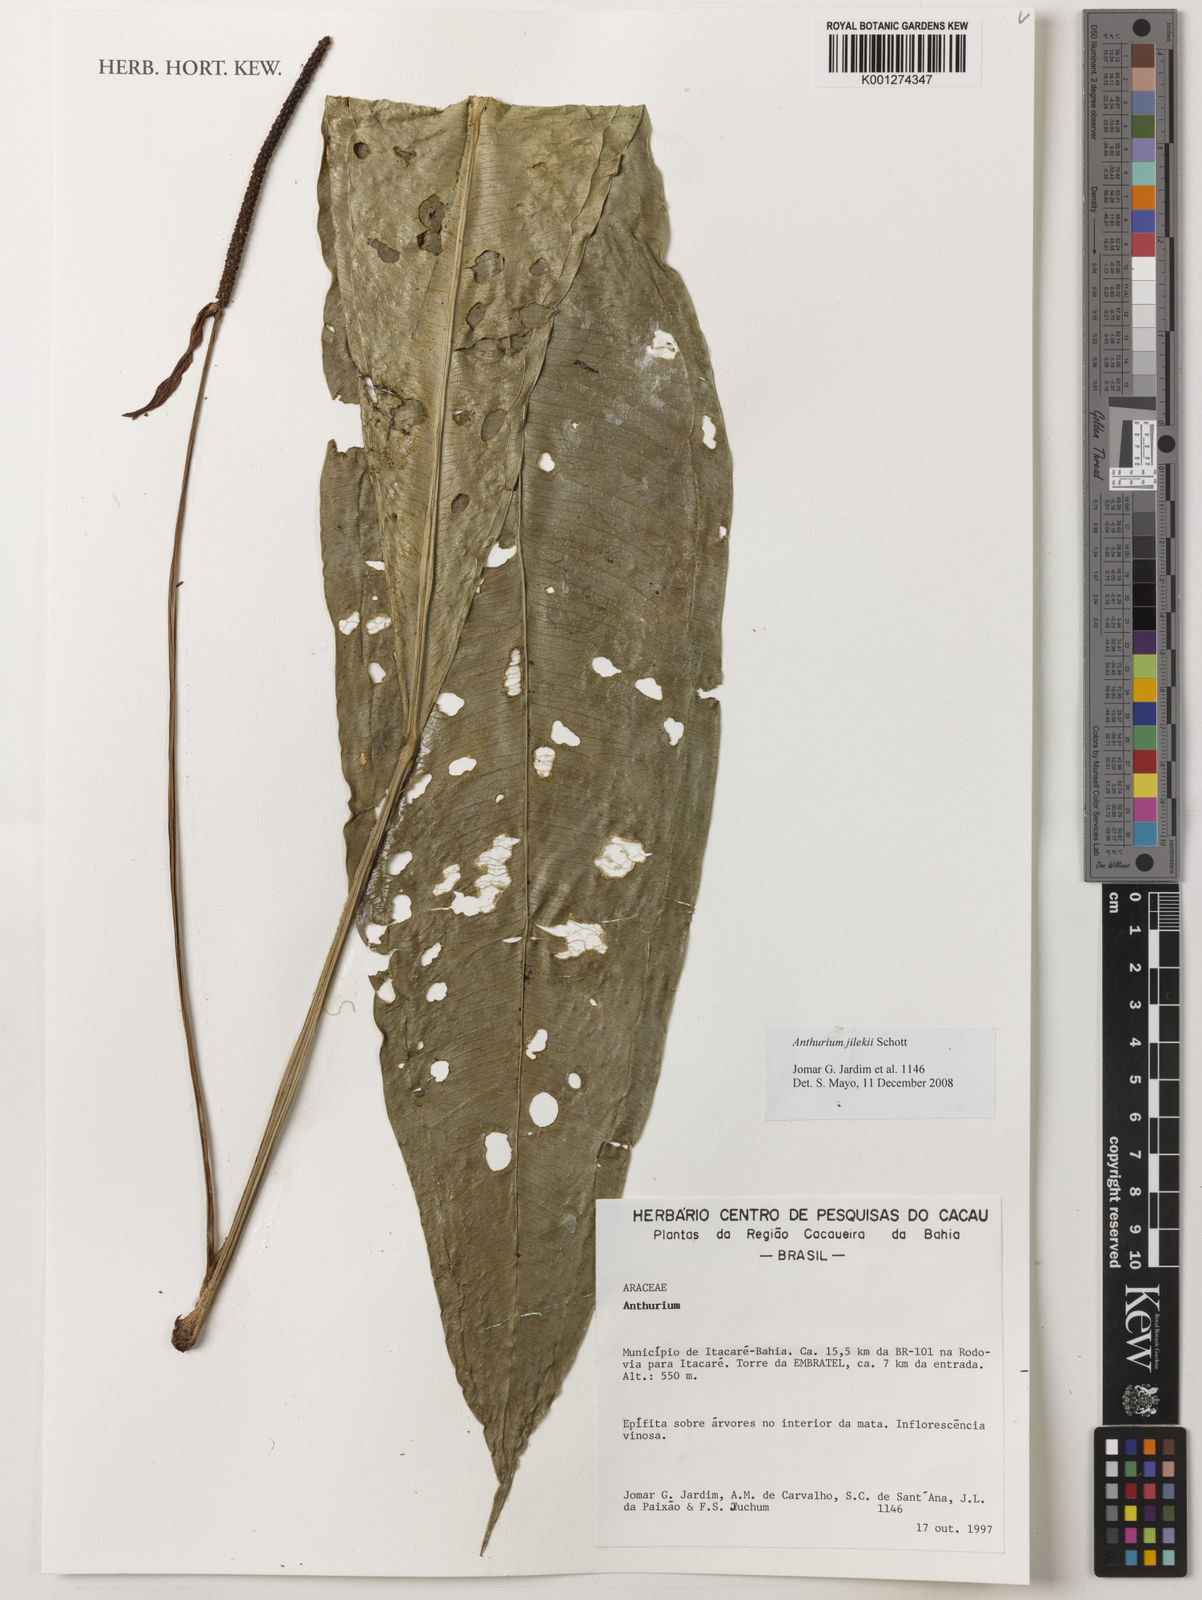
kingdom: Plantae
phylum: Tracheophyta
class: Liliopsida
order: Alismatales
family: Araceae
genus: Anthurium
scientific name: Anthurium jilekii
